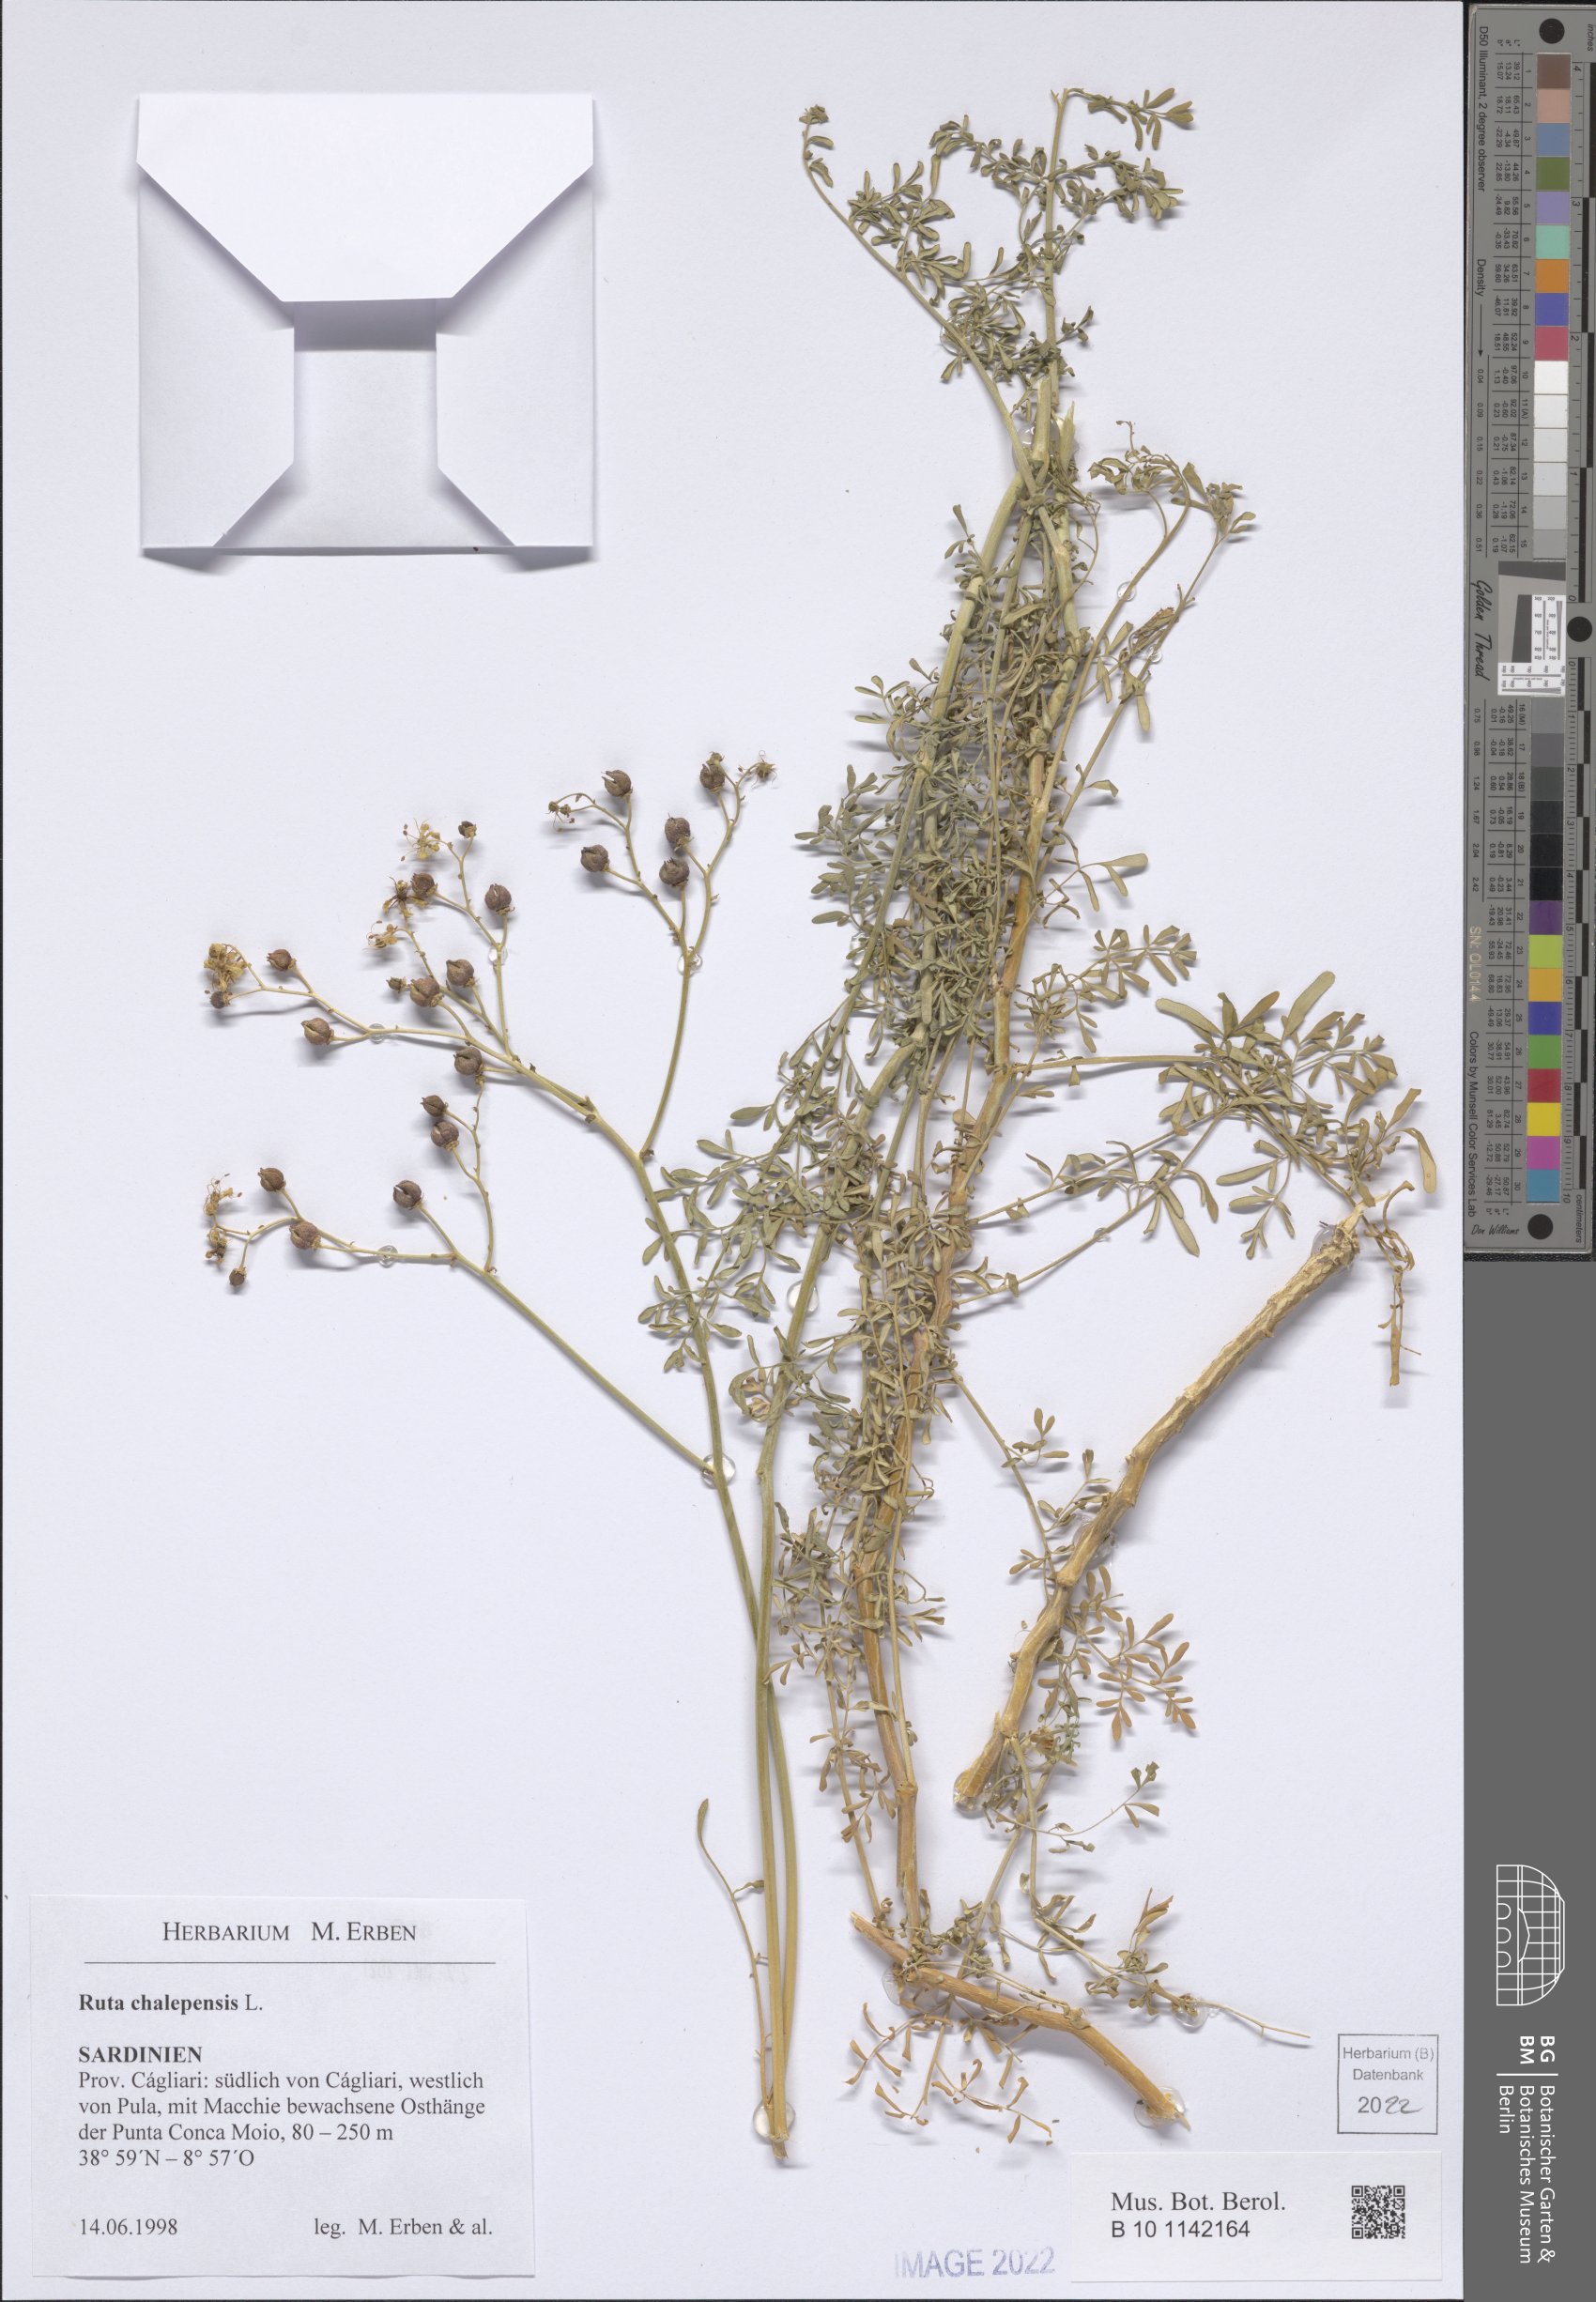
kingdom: Plantae
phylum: Tracheophyta
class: Magnoliopsida
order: Caryophyllales
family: Polygonaceae
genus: Rumex
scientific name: Rumex chalepensis
